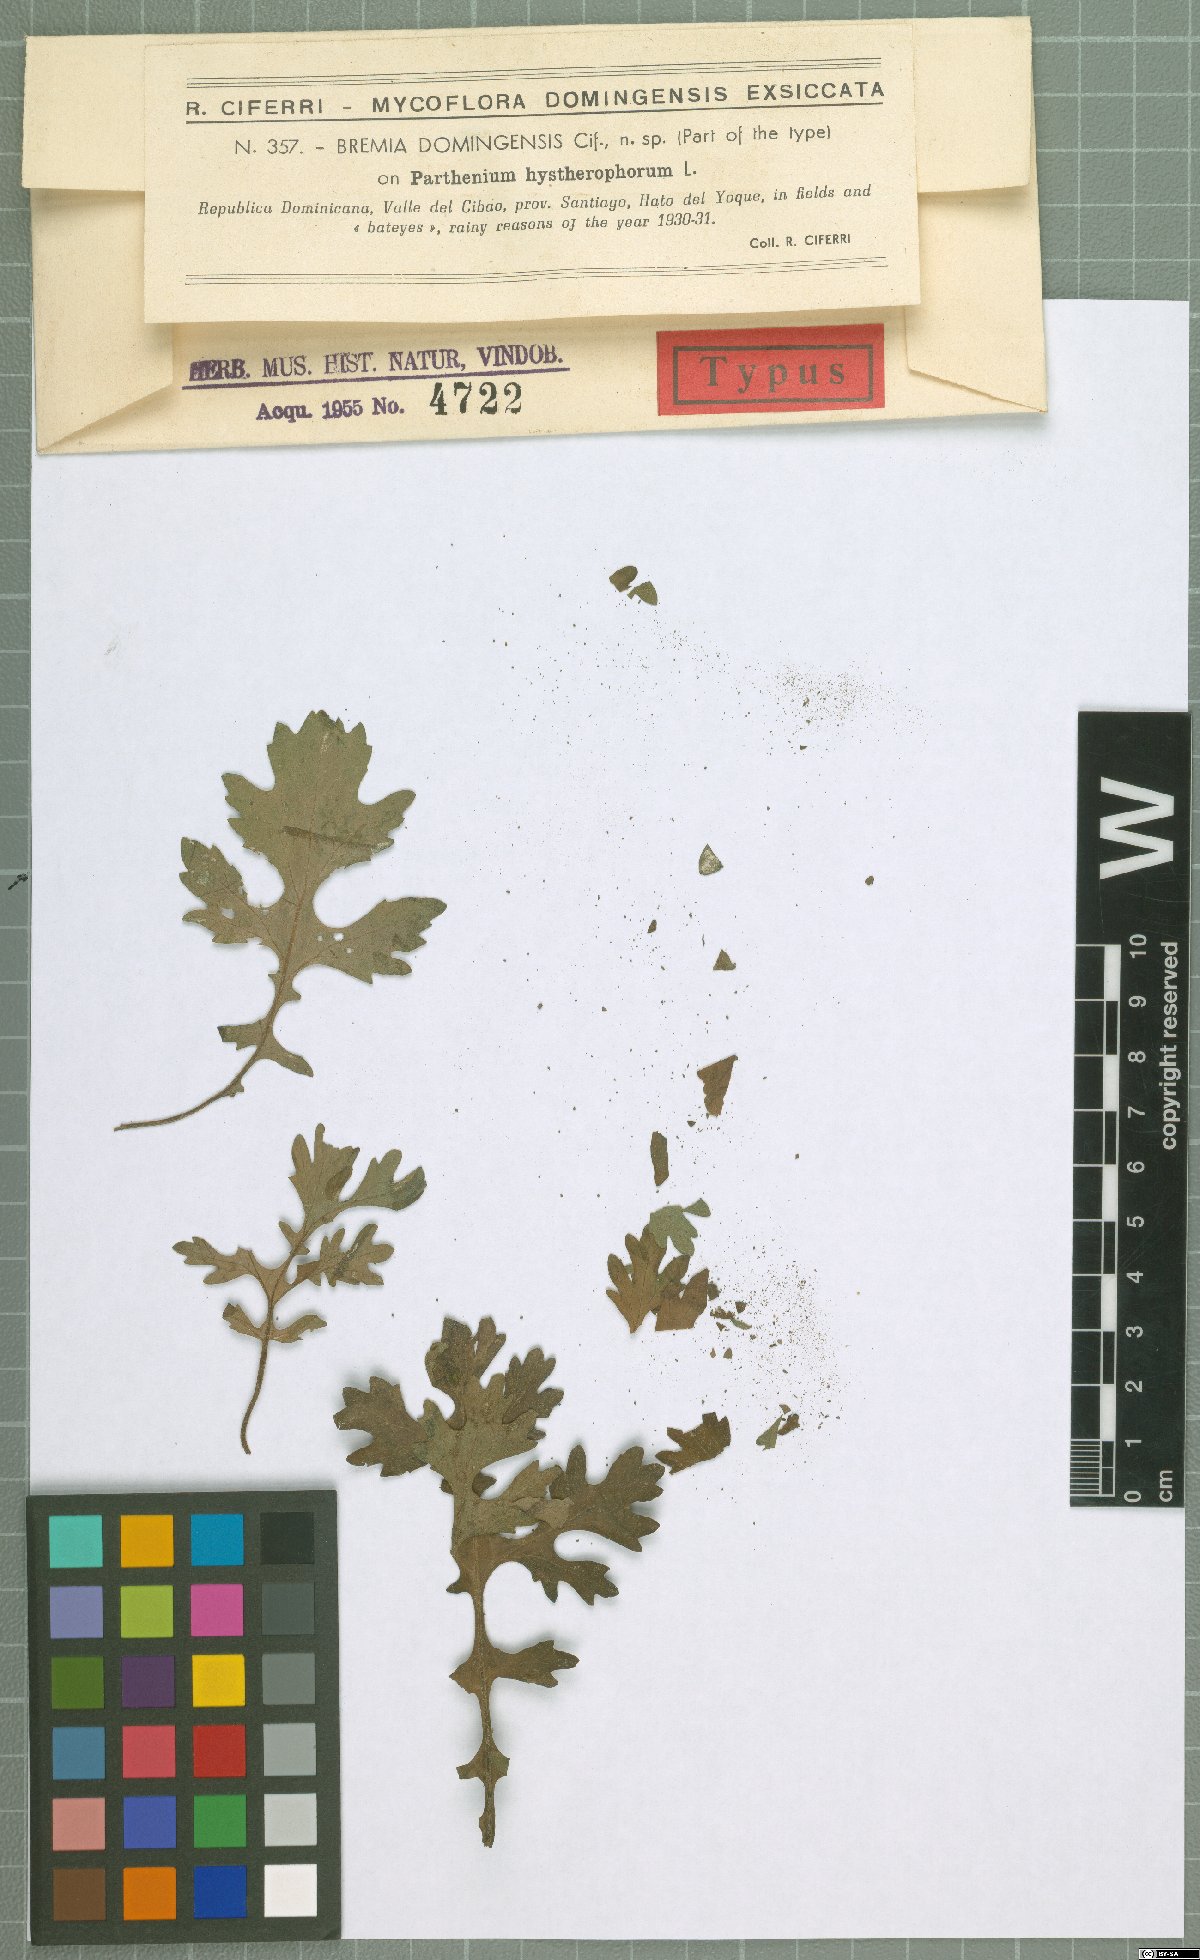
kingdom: Chromista
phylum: Oomycota
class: Peronosporea
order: Peronosporales
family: Peronosporaceae
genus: Plasmopara
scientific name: Plasmopara domingensis
